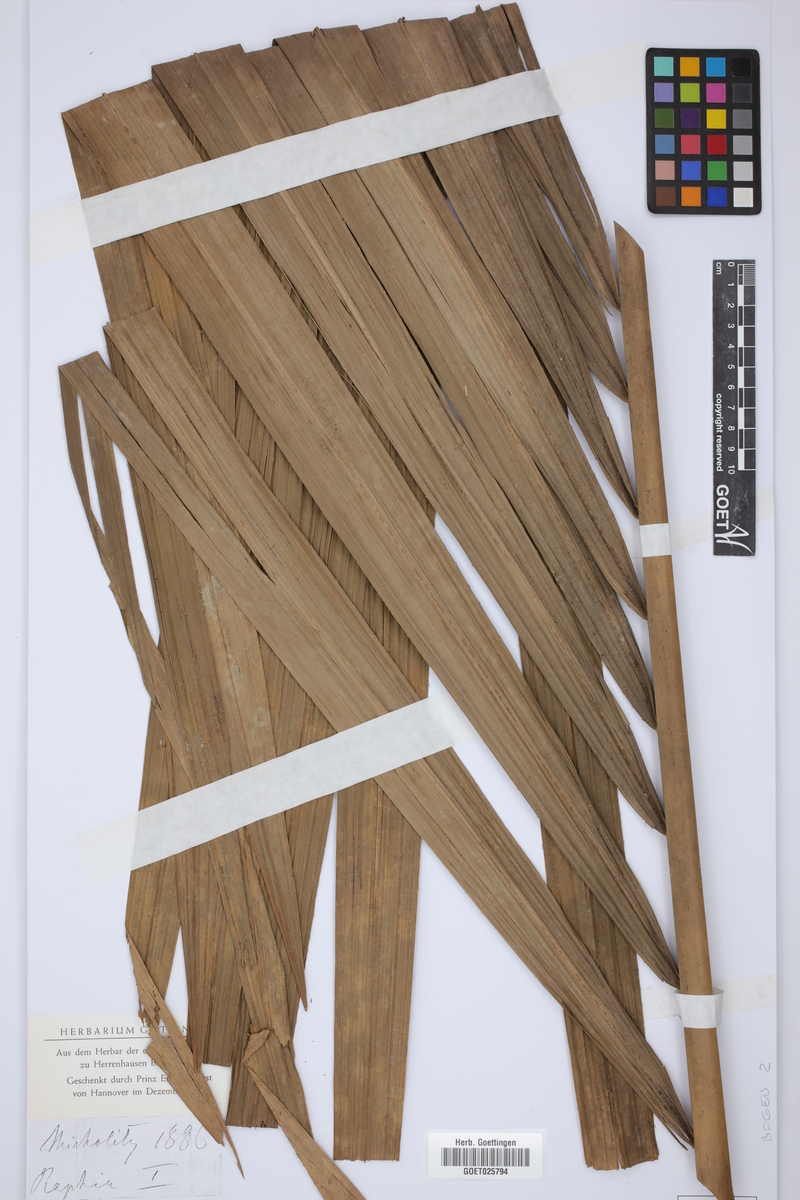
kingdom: Plantae
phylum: Tracheophyta
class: Liliopsida
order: Arecales
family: Arecaceae
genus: Raphia
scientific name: Raphia
